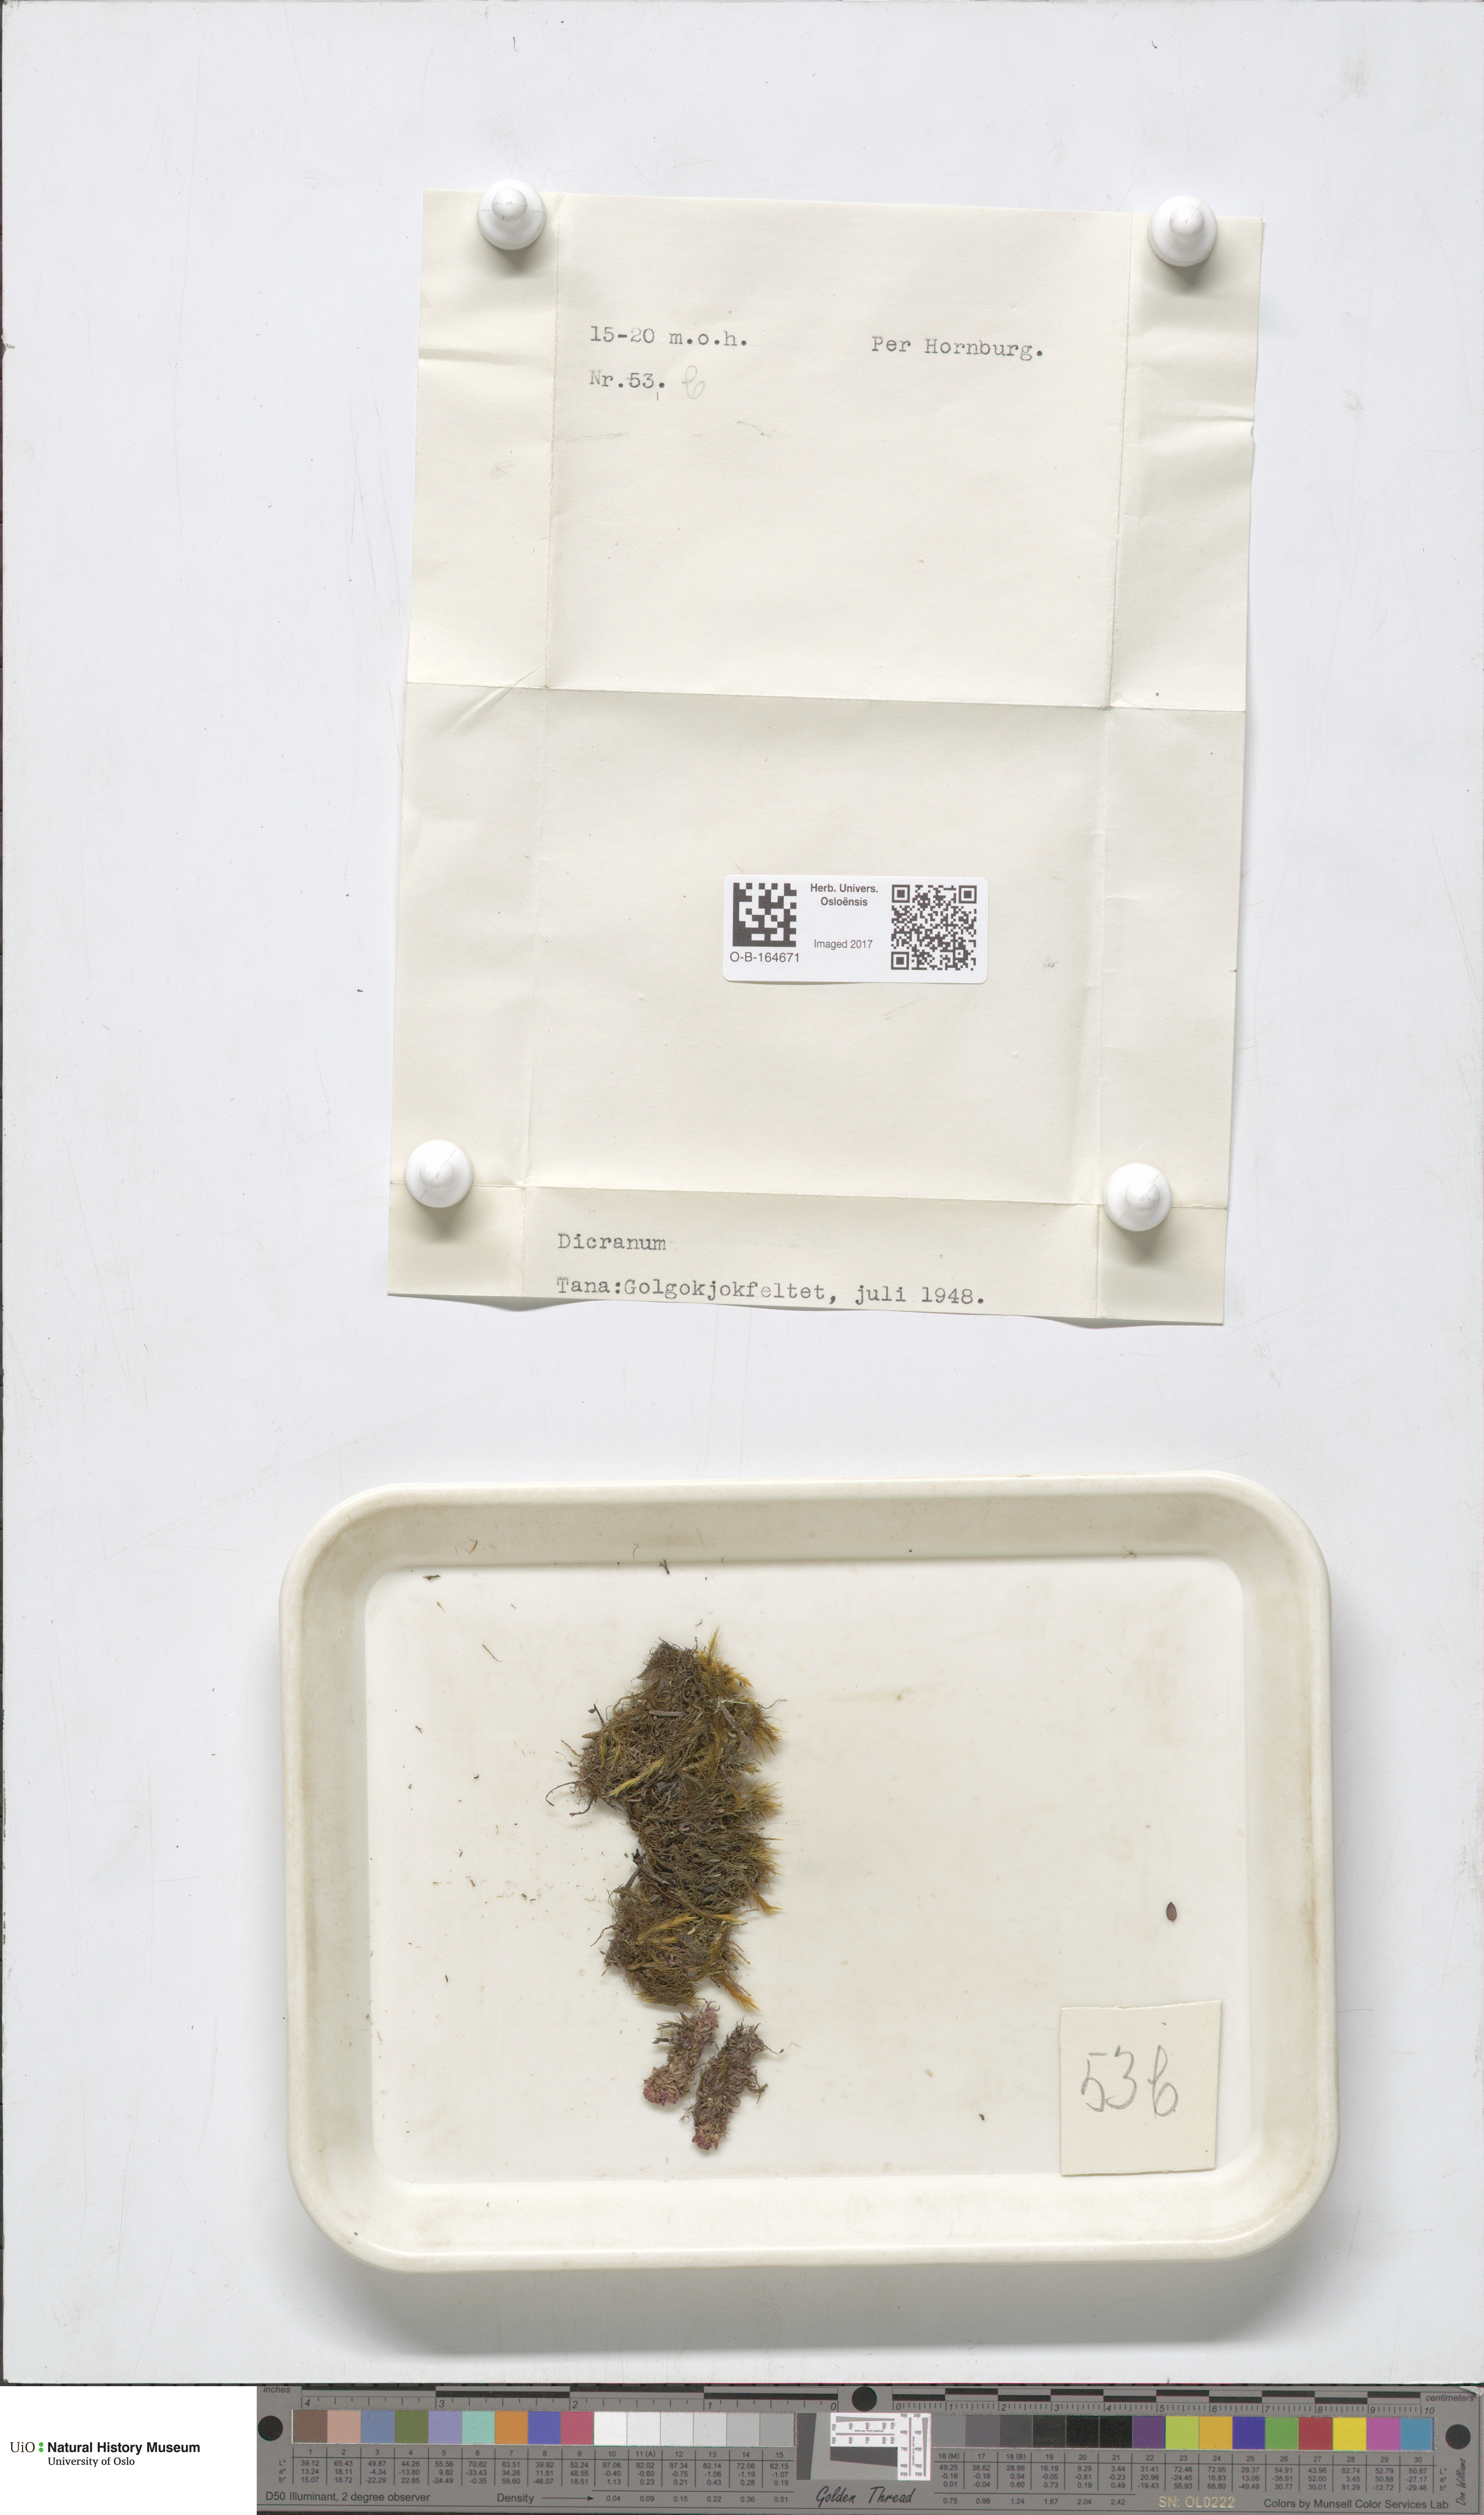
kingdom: Plantae
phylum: Bryophyta
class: Bryopsida
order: Dicranales
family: Dicranaceae
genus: Dicranum
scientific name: Dicranum
